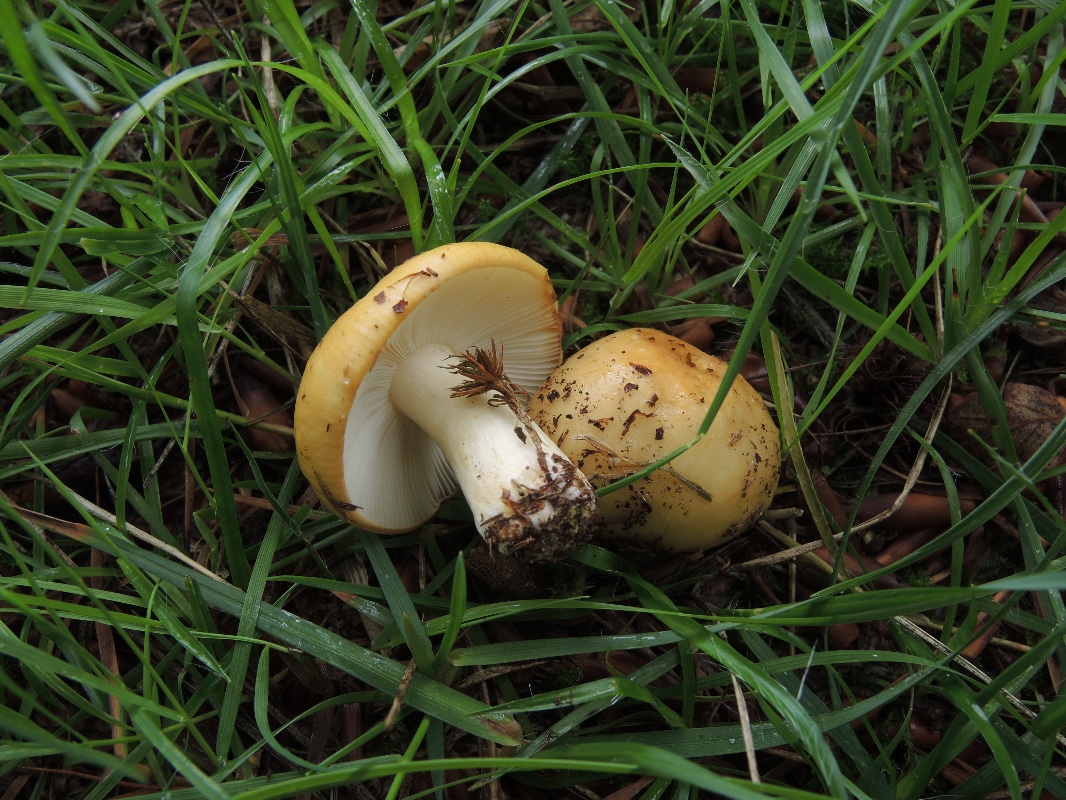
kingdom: Fungi
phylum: Basidiomycota
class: Agaricomycetes
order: Russulales
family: Russulaceae
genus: Russula
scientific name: Russula ochroleuca
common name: okkergul skørhat
